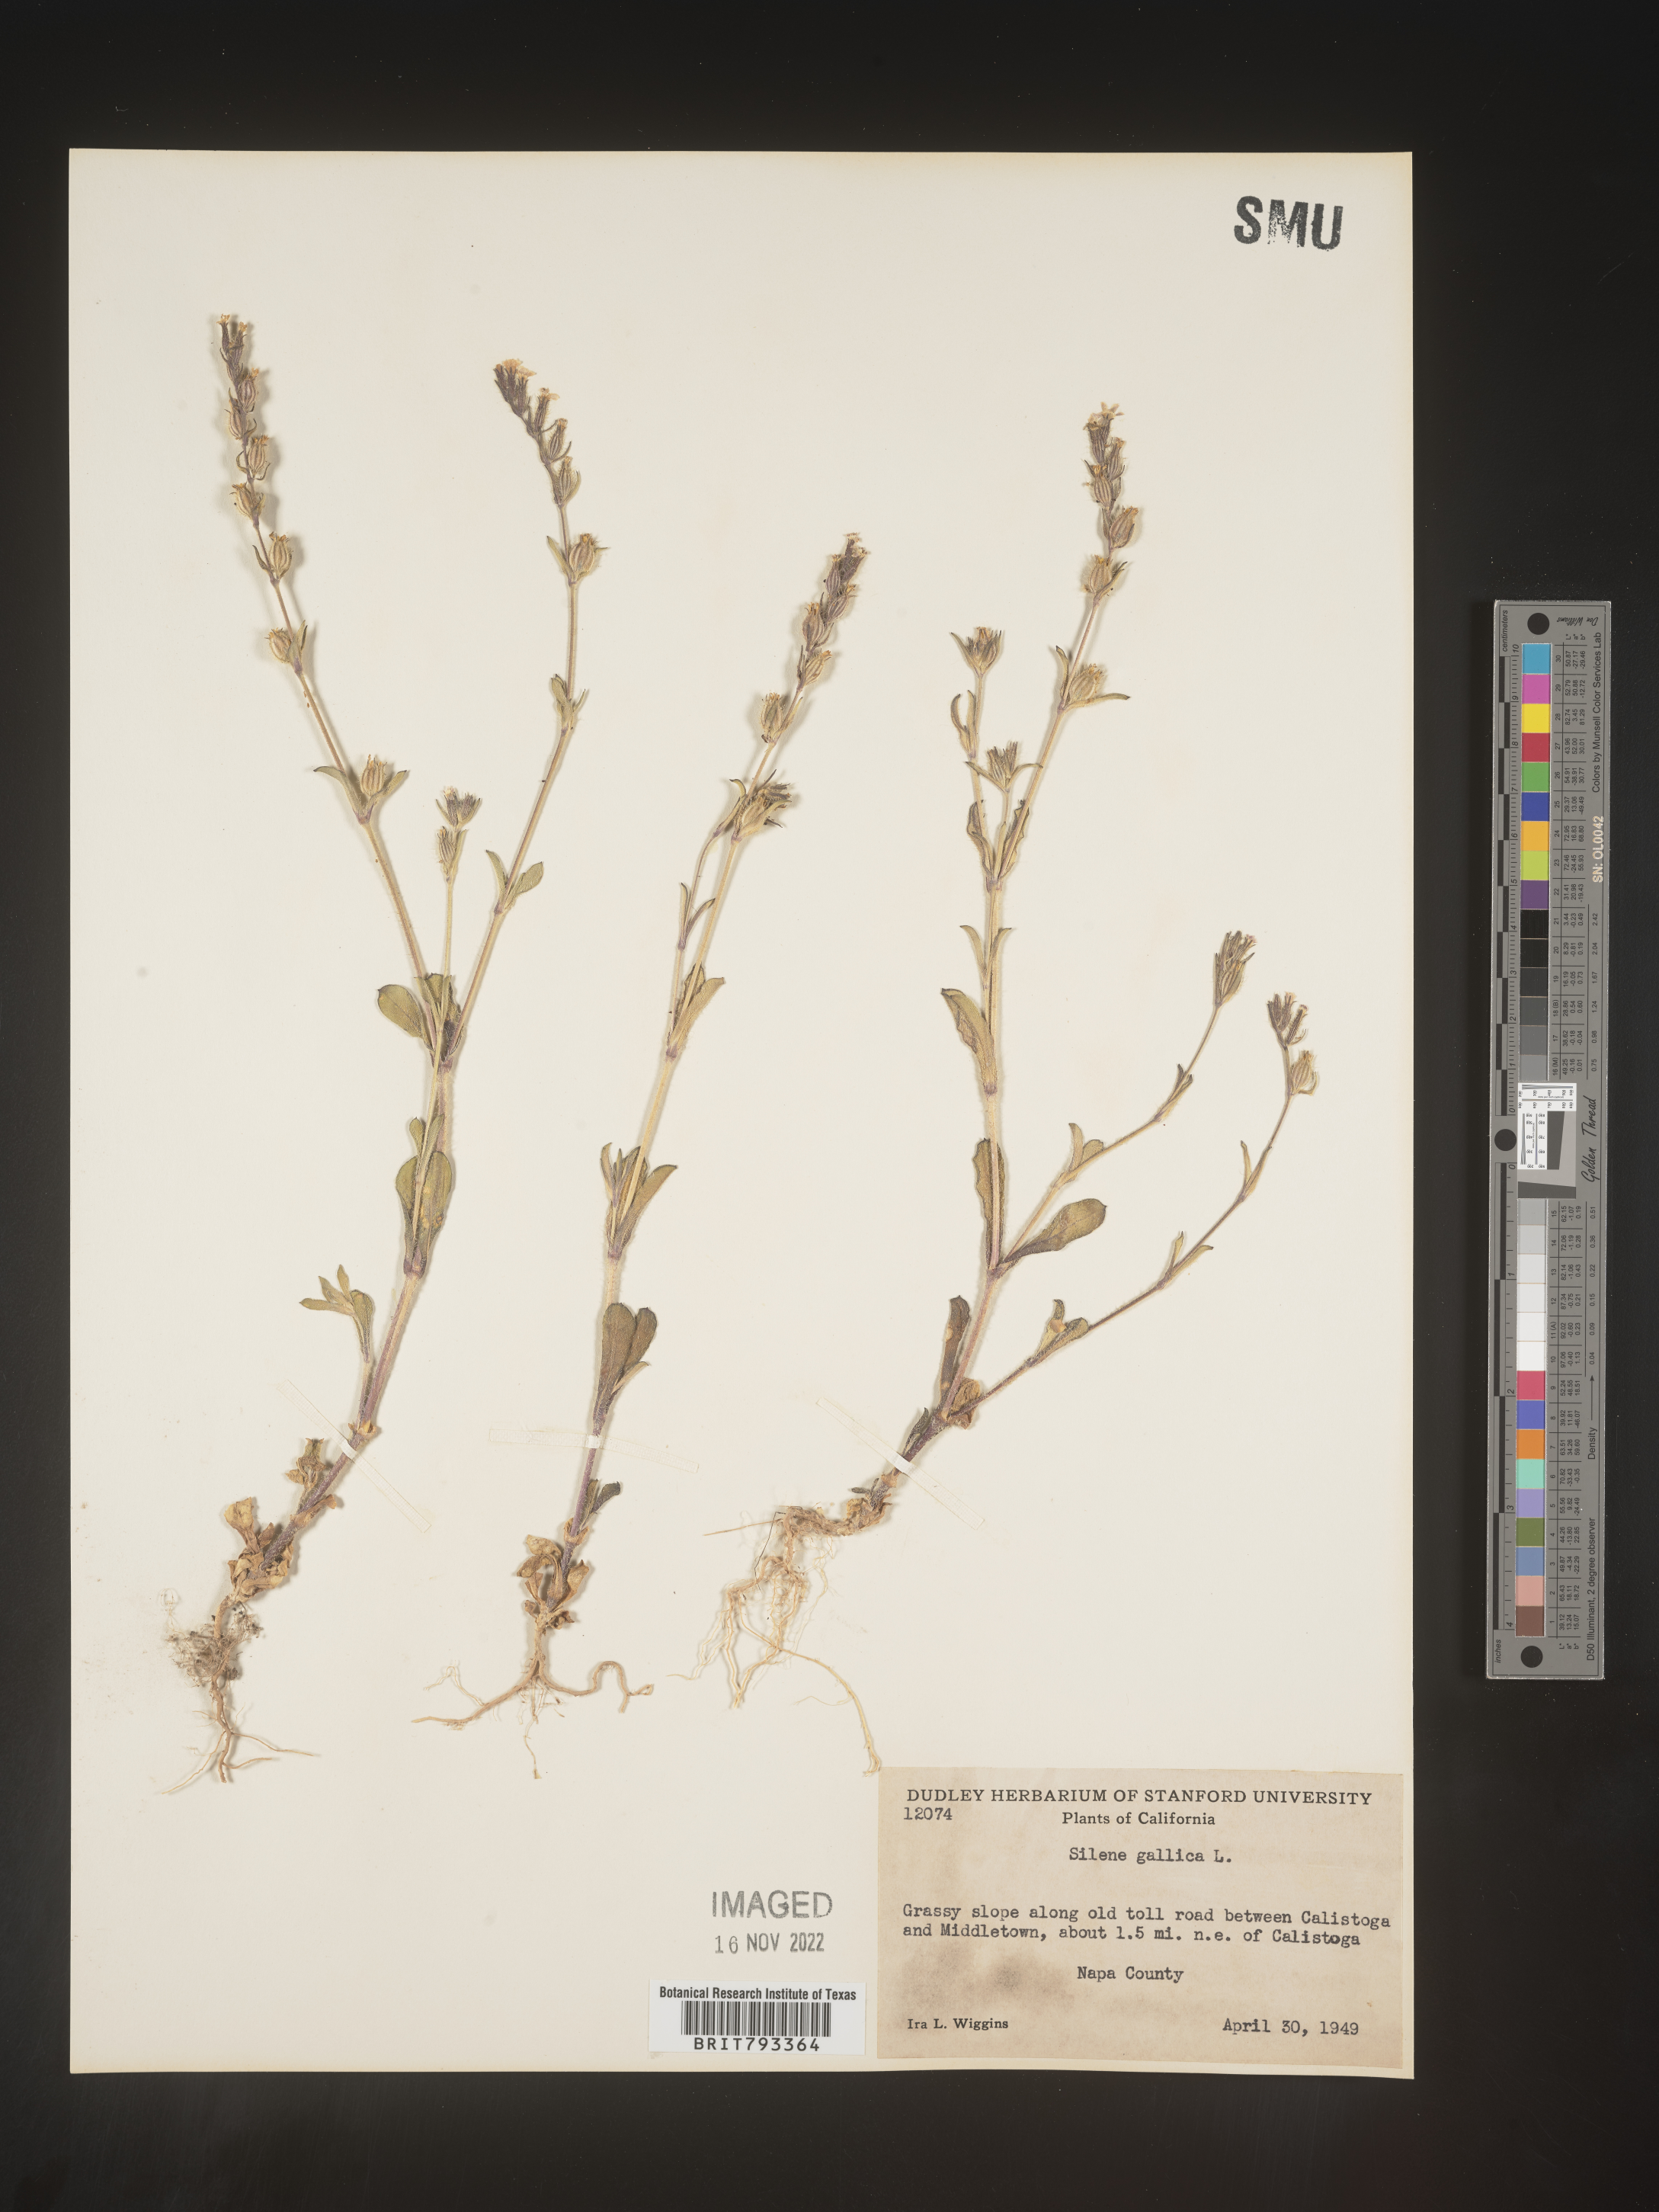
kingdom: Plantae
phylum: Tracheophyta
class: Magnoliopsida
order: Caryophyllales
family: Caryophyllaceae
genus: Silene
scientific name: Silene gallica
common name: Small-flowered catchfly
